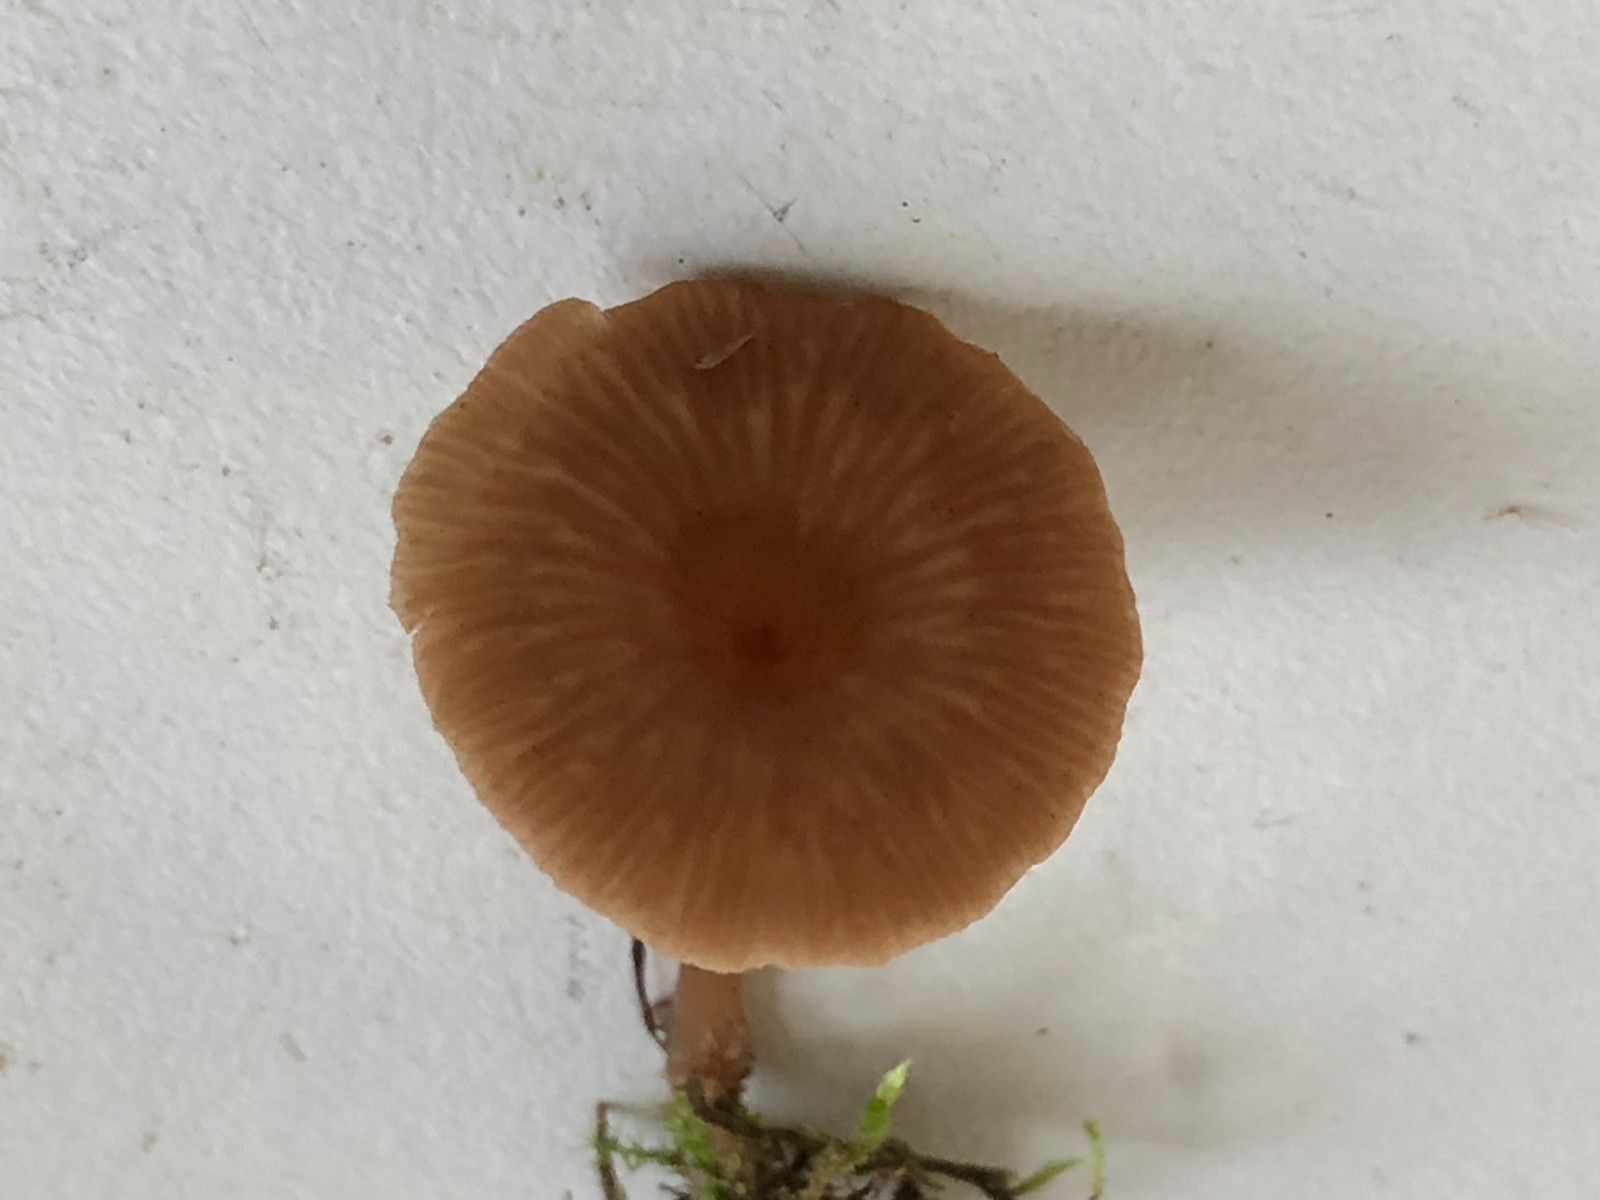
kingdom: Fungi
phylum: Basidiomycota
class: Agaricomycetes
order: Agaricales
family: Tricholomataceae
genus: Omphalina
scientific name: Omphalina pyxidata
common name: rødbrun navlehat
